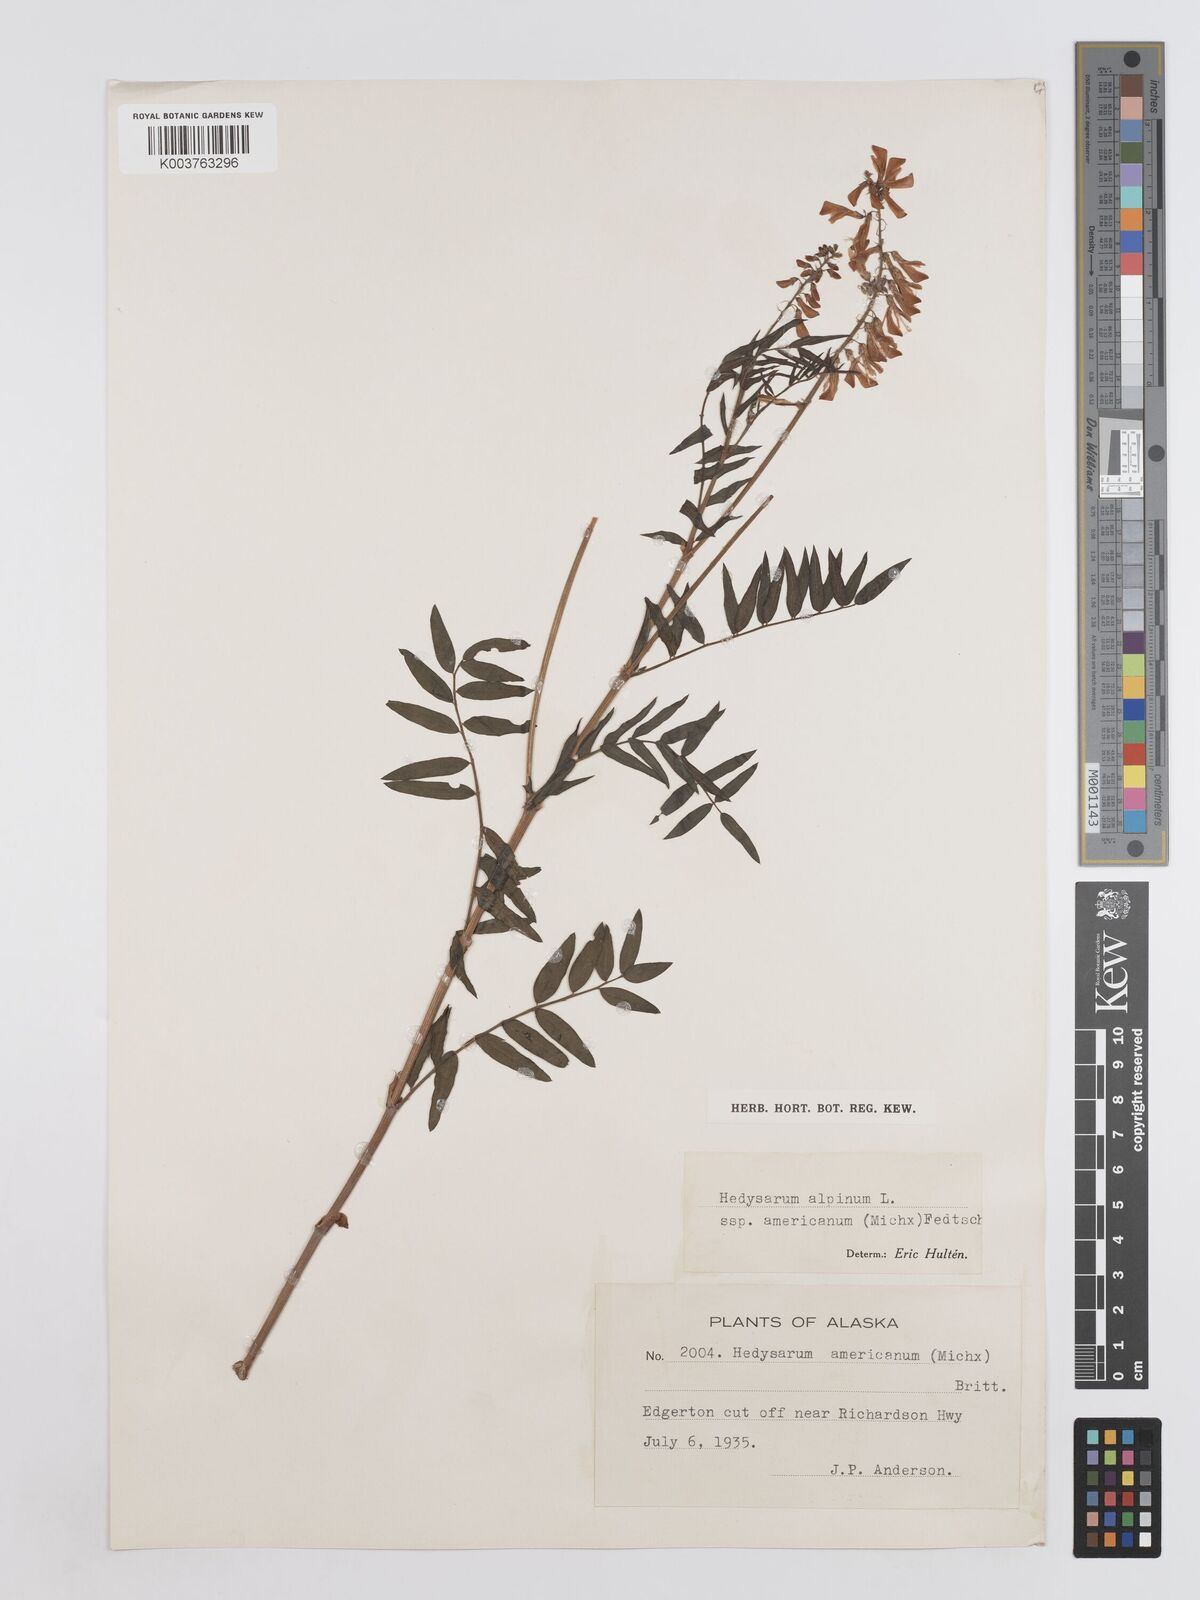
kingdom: Plantae
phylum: Tracheophyta
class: Magnoliopsida
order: Fabales
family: Fabaceae
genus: Hedysarum
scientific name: Hedysarum alpinum
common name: Alpine sweet-vetch
